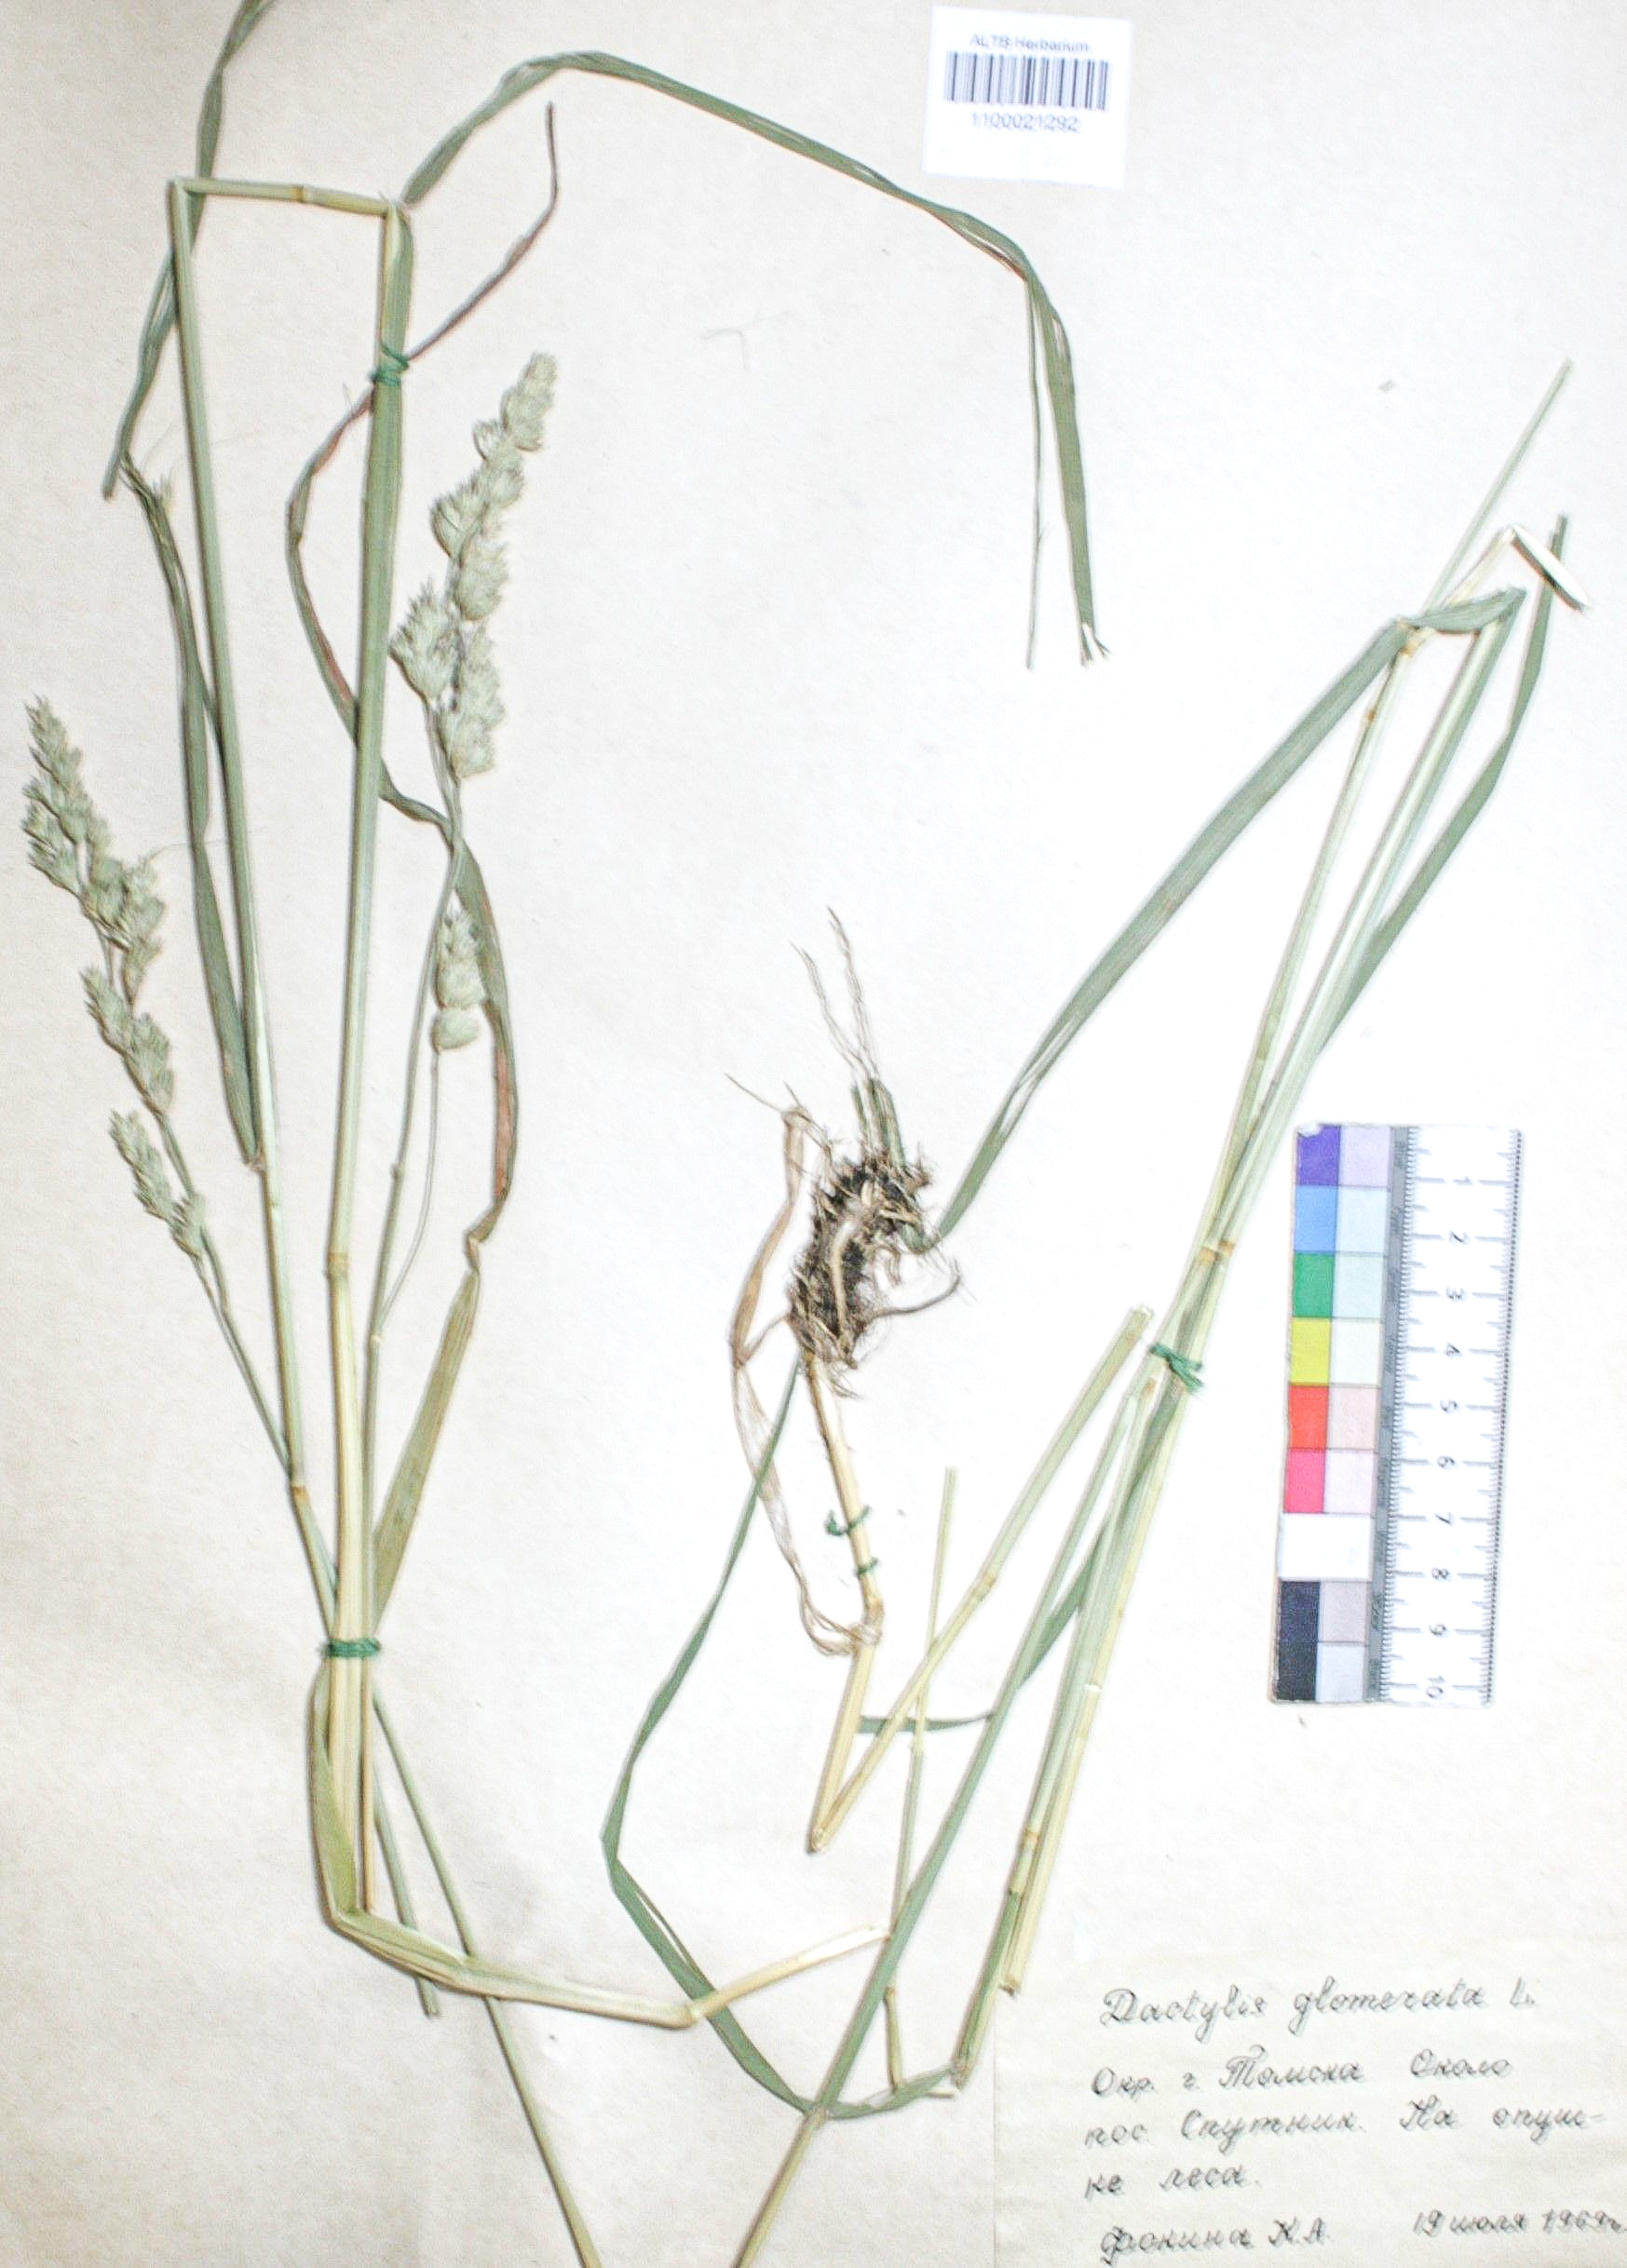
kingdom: Plantae
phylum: Tracheophyta
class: Liliopsida
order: Poales
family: Poaceae
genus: Dactylis
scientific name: Dactylis glomerata
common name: Orchardgrass
